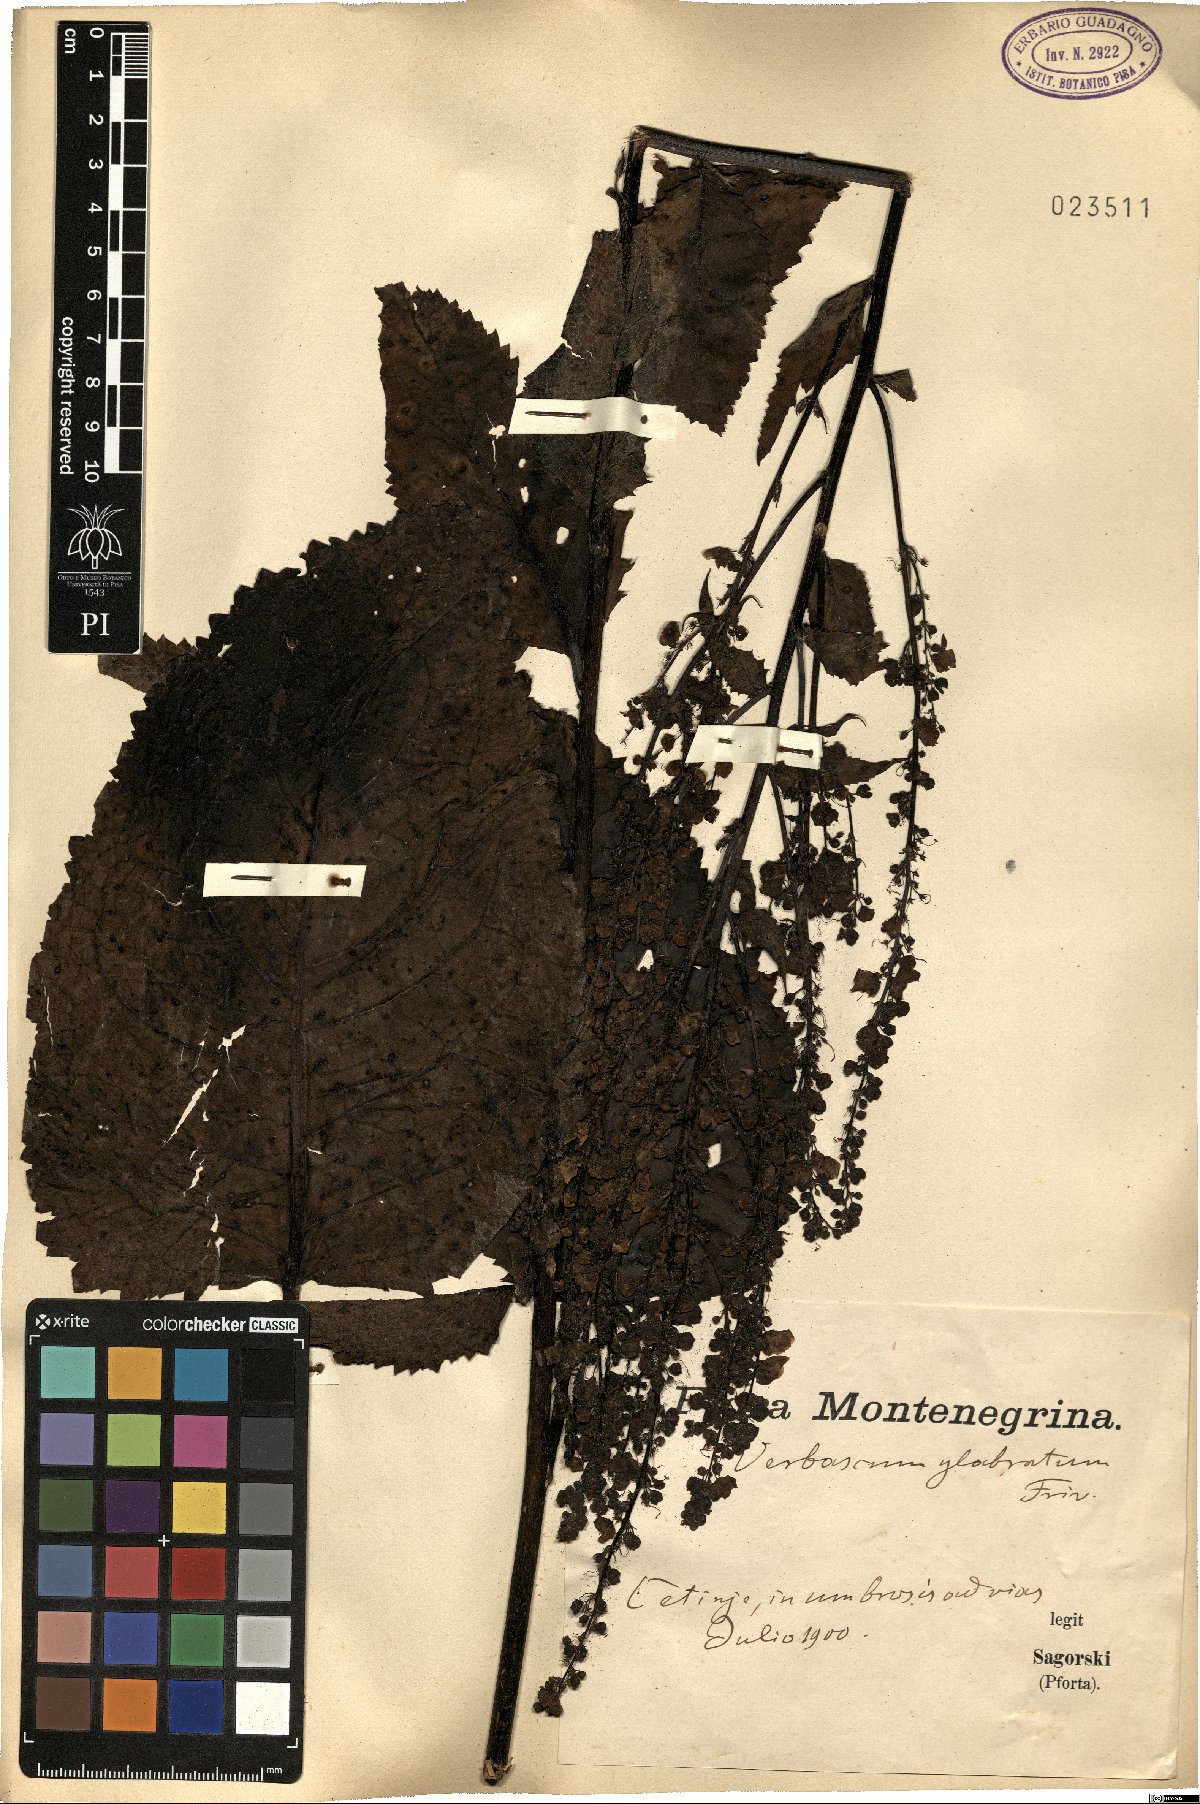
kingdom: Plantae
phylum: Tracheophyta
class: Magnoliopsida
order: Lamiales
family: Scrophulariaceae
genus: Verbascum
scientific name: Verbascum glabratum
